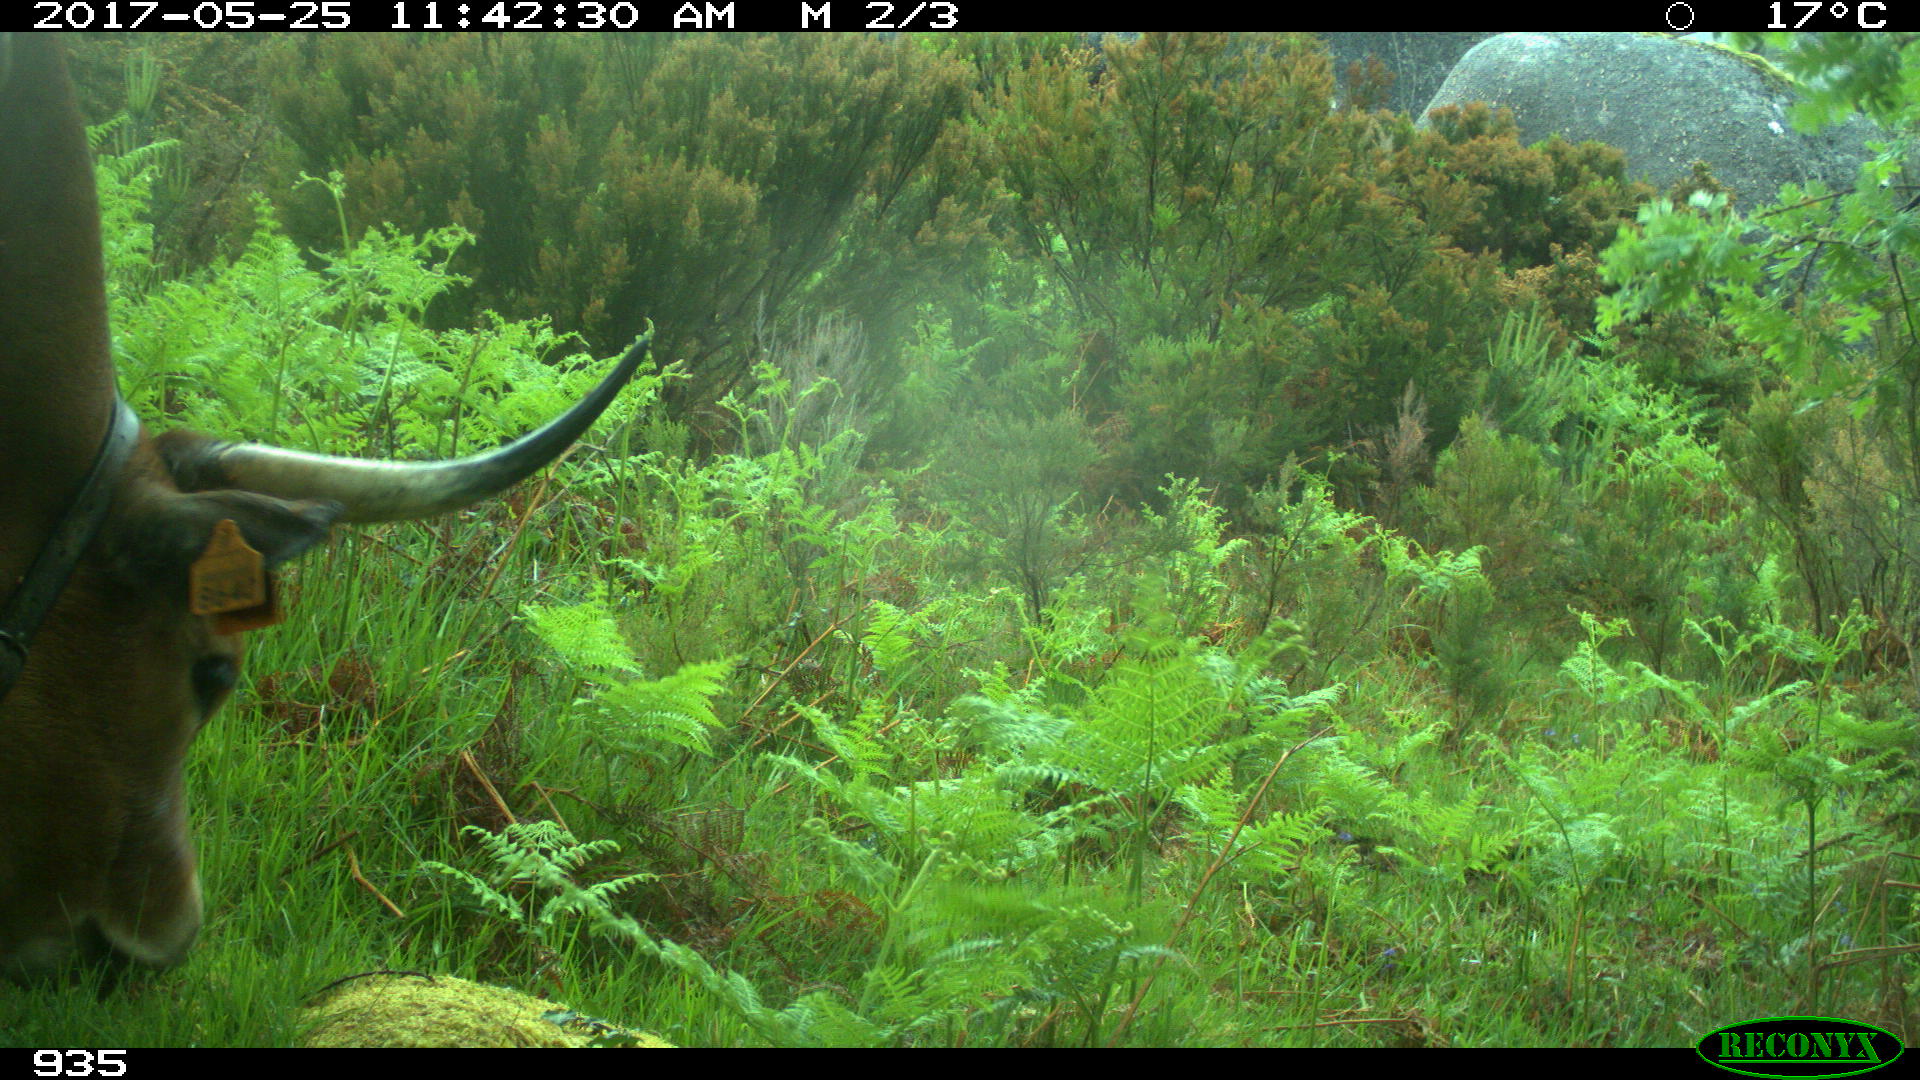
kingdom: Animalia
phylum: Chordata
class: Mammalia
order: Artiodactyla
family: Bovidae
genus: Bos
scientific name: Bos taurus
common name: Domesticated cattle
